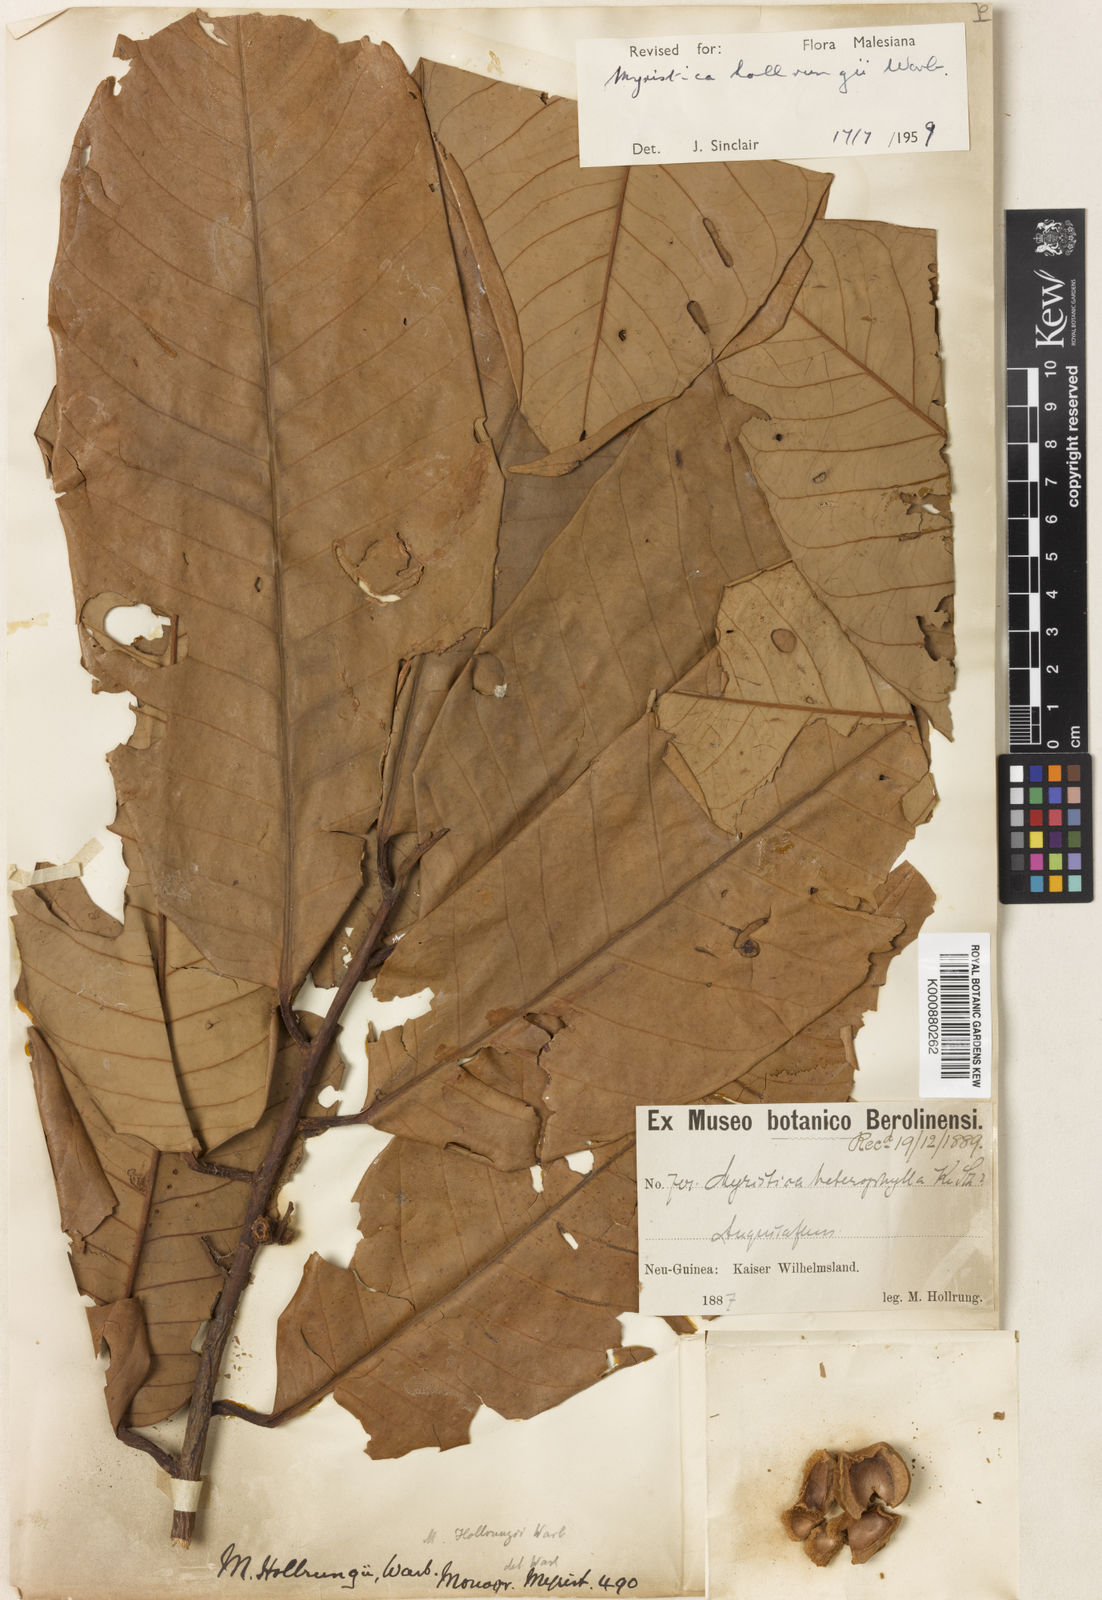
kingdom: Plantae
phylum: Tracheophyta
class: Magnoliopsida
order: Magnoliales
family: Myristicaceae
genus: Myristica
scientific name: Myristica hollrungii
